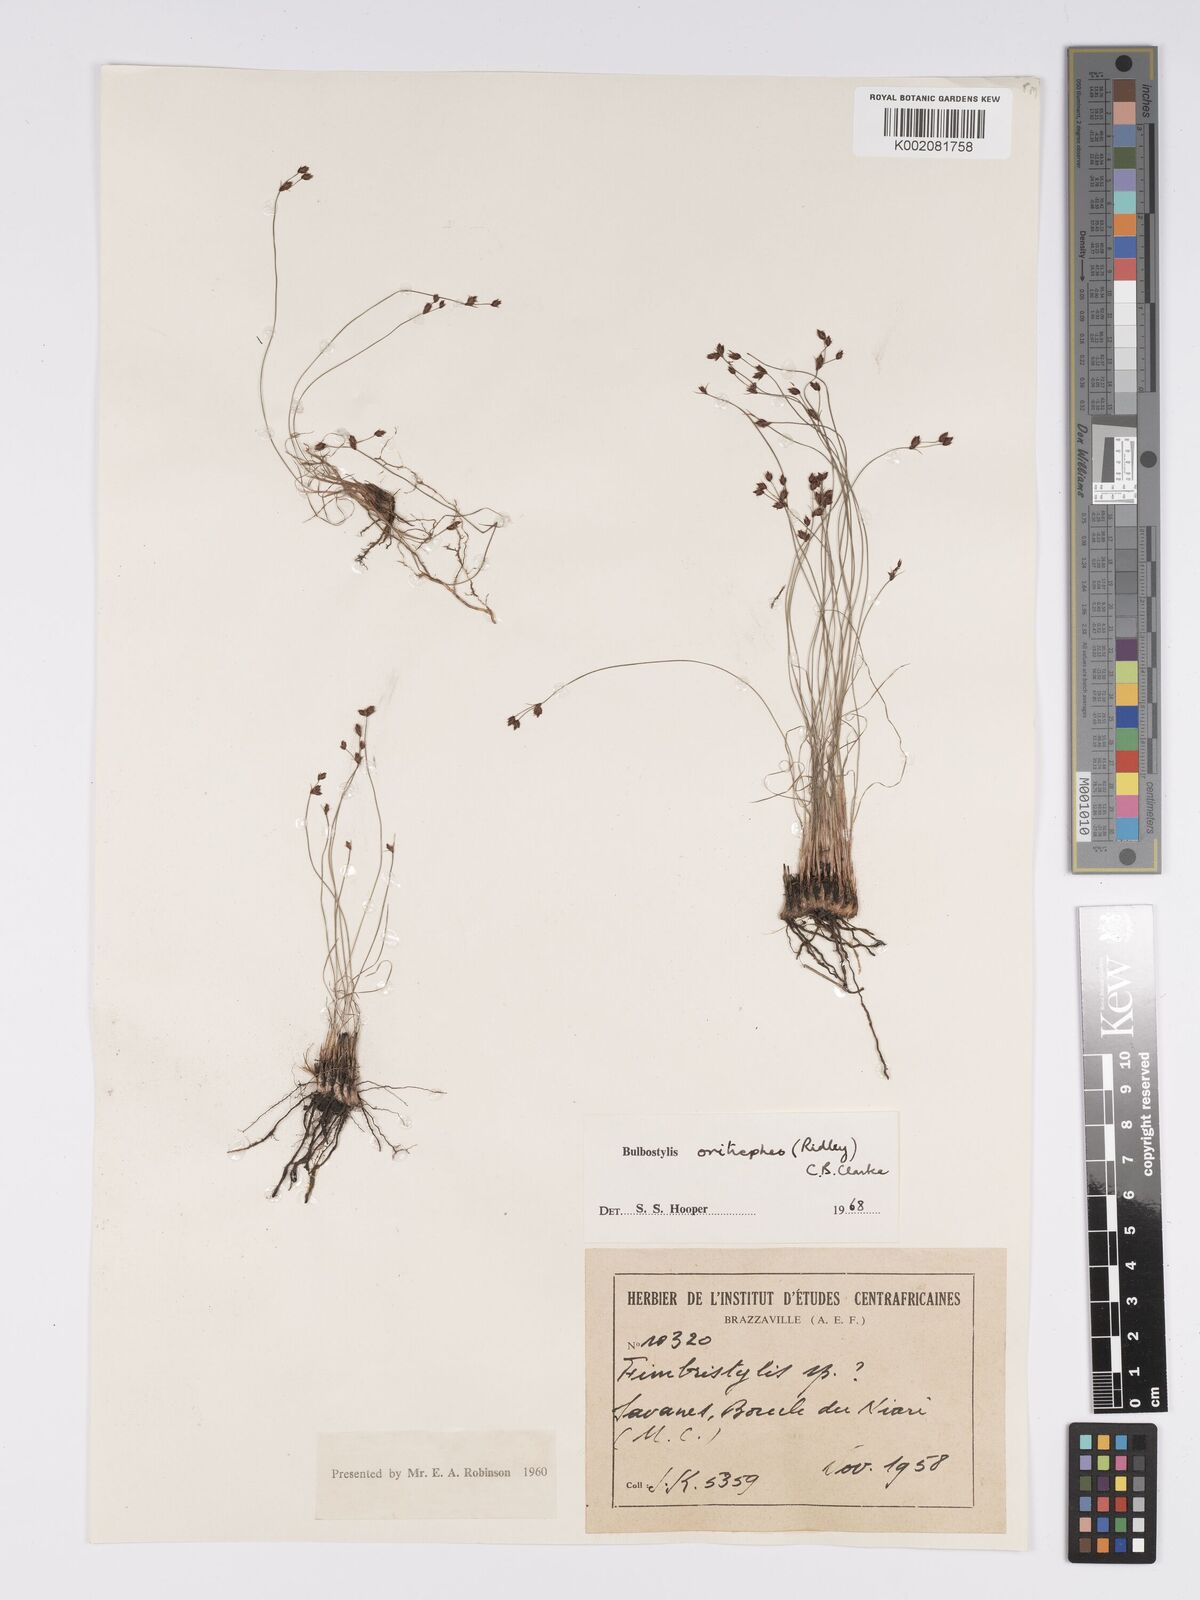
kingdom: Plantae
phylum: Tracheophyta
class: Liliopsida
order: Poales
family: Cyperaceae
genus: Bulbostylis
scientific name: Bulbostylis oritrephes
